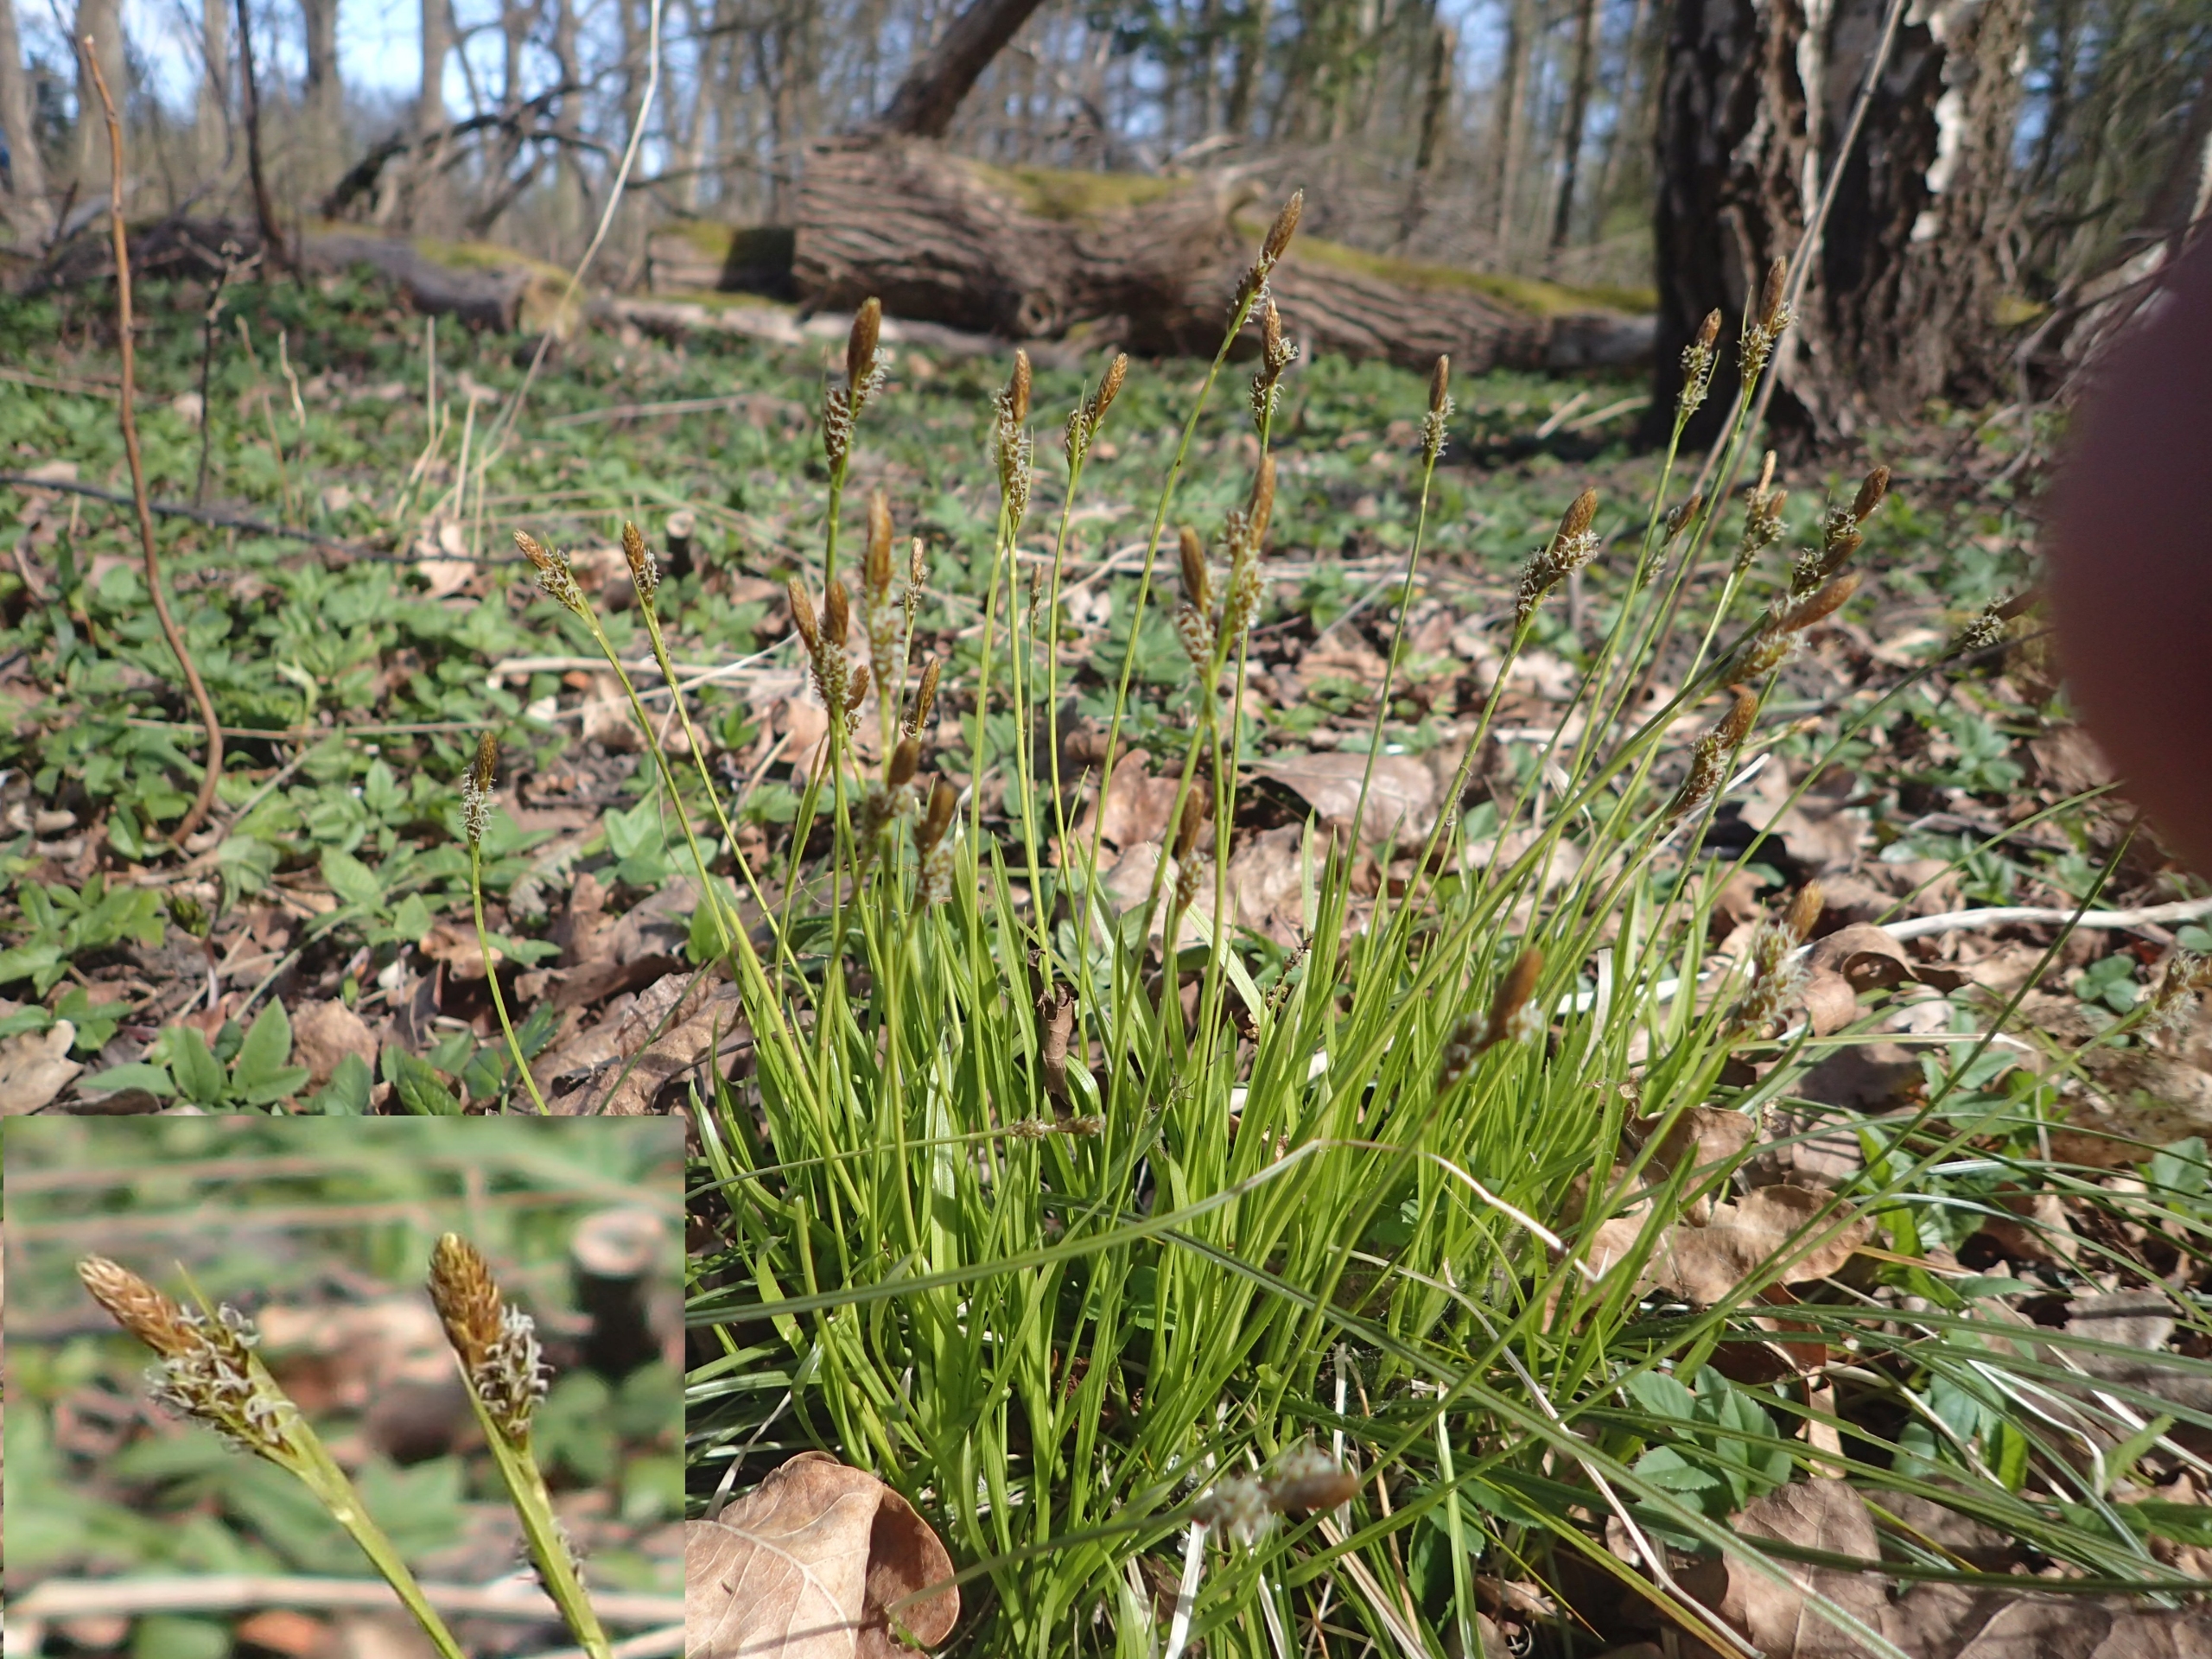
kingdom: Plantae
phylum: Tracheophyta
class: Liliopsida
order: Poales
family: Cyperaceae
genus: Carex
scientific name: Carex caryophyllea
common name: Vår-star
